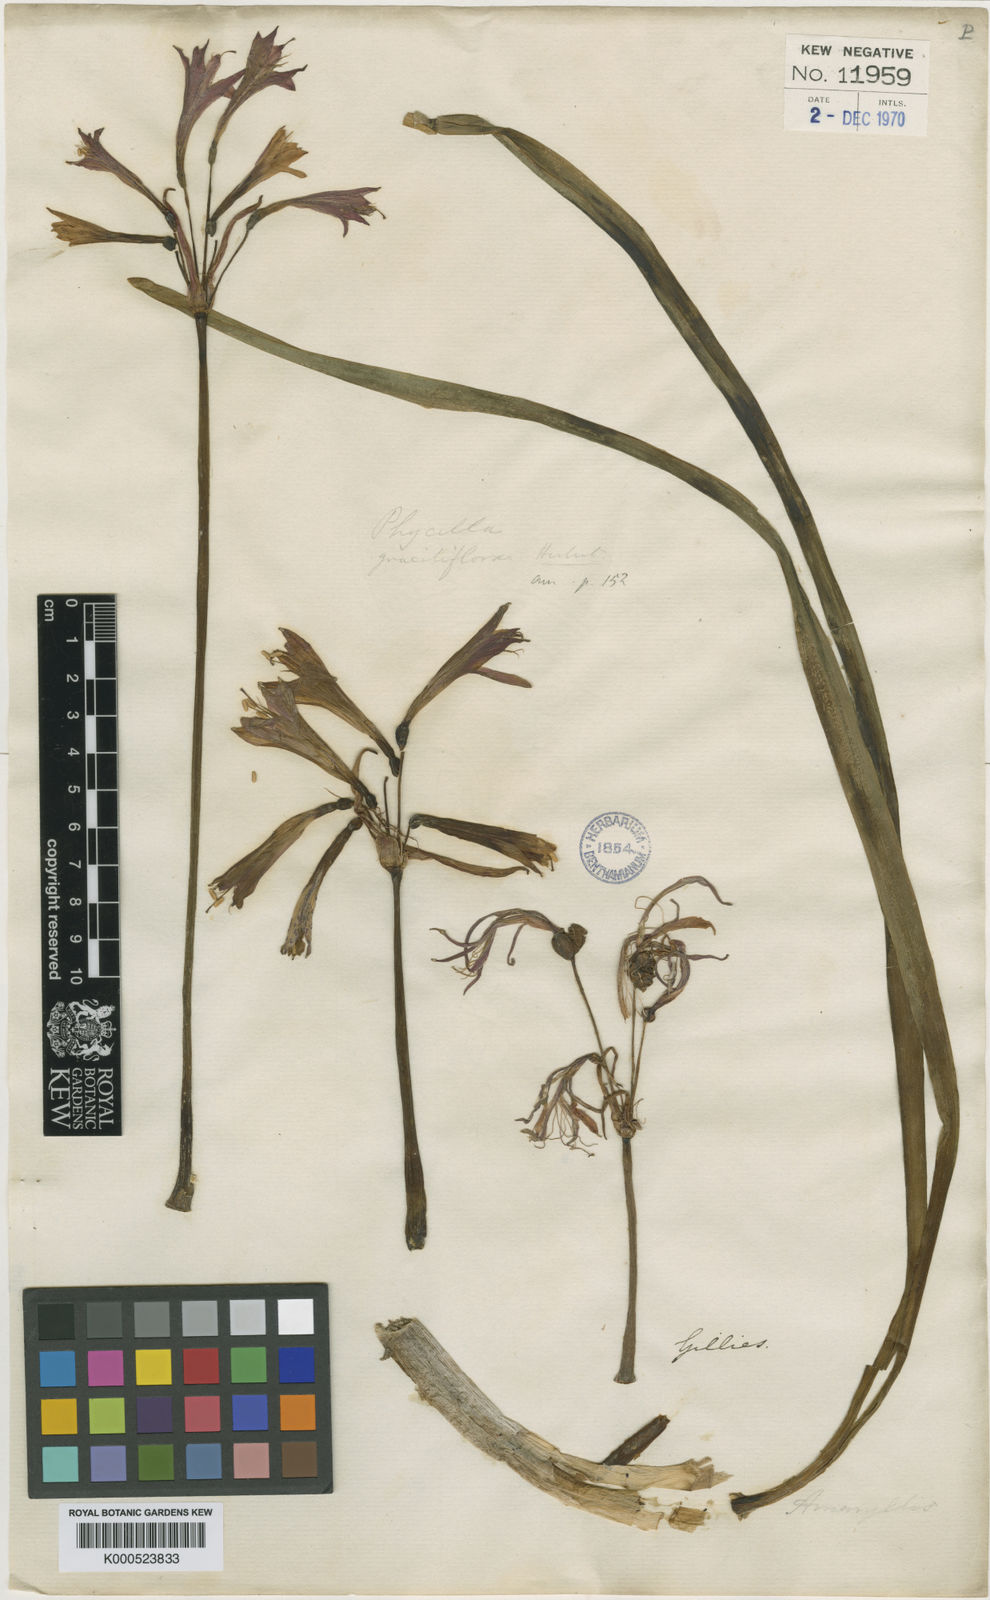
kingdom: Plantae
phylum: Tracheophyta
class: Liliopsida
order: Asparagales
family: Amaryllidaceae
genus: Eustephia
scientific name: Eustephia coccinea
